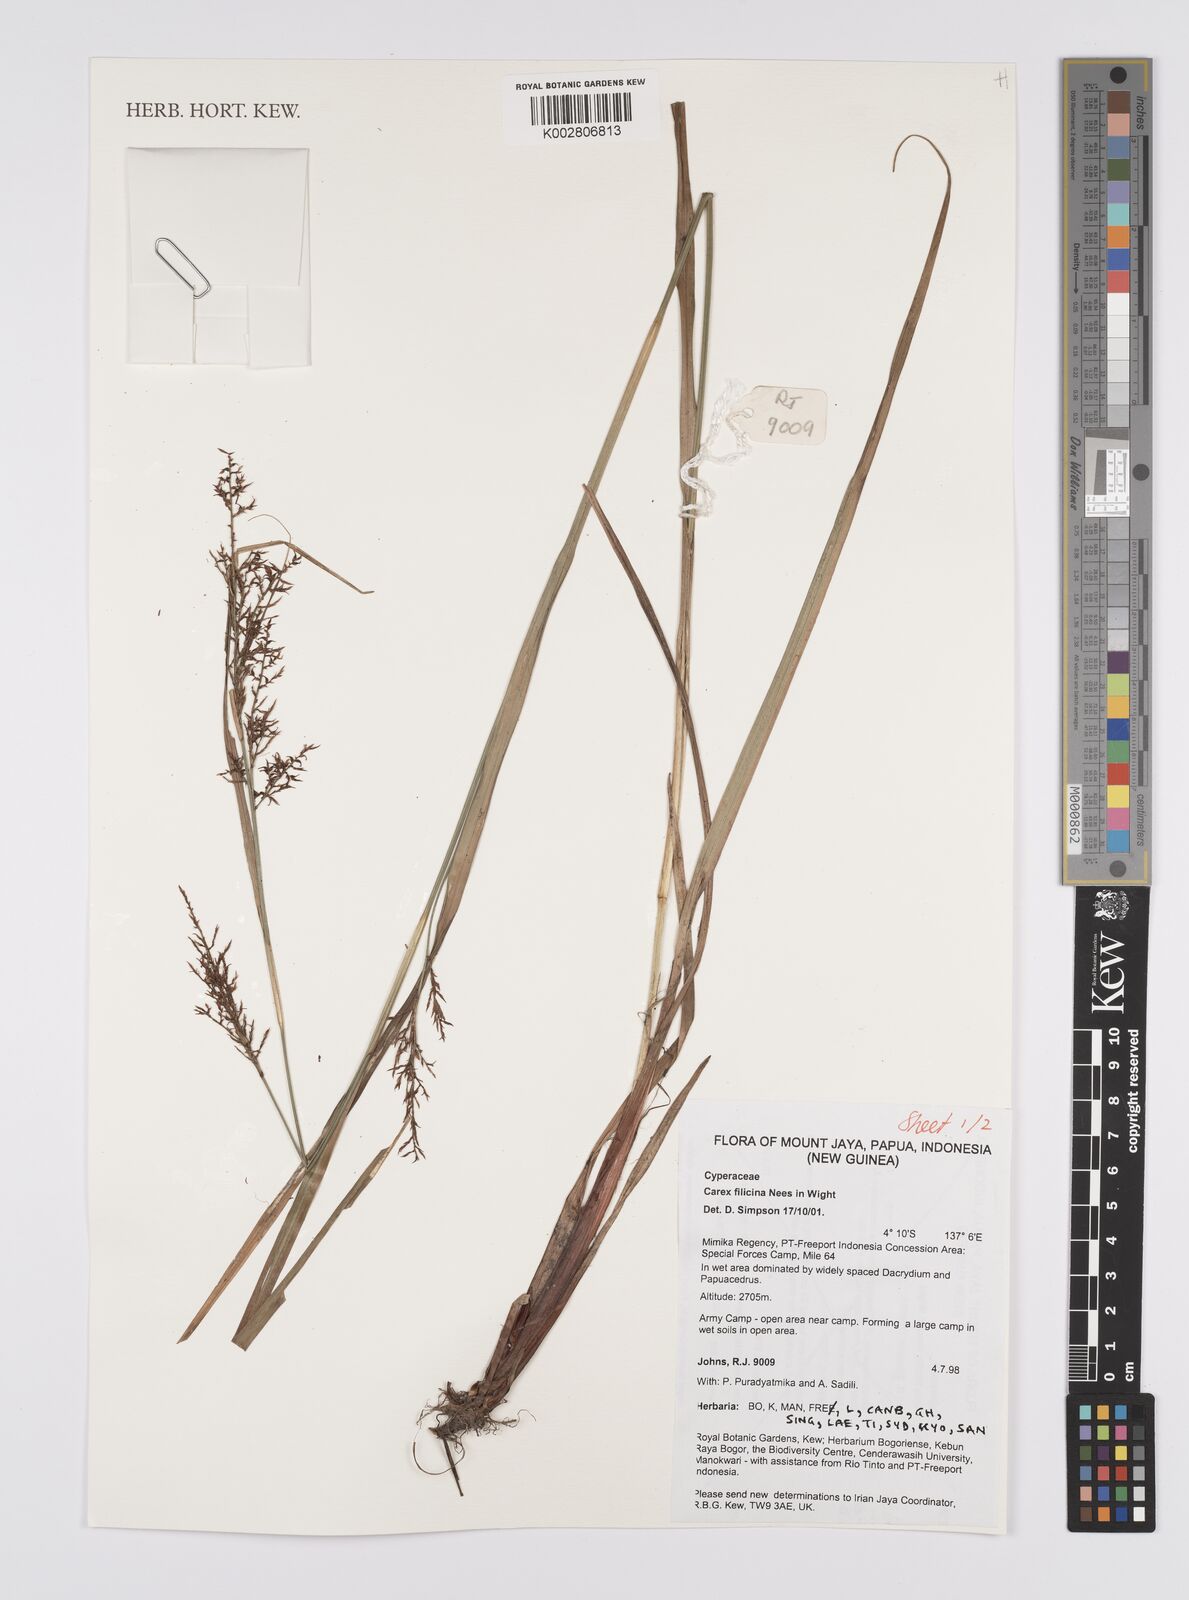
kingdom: Plantae
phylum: Tracheophyta
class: Liliopsida
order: Poales
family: Cyperaceae
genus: Carex
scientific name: Carex filicina
